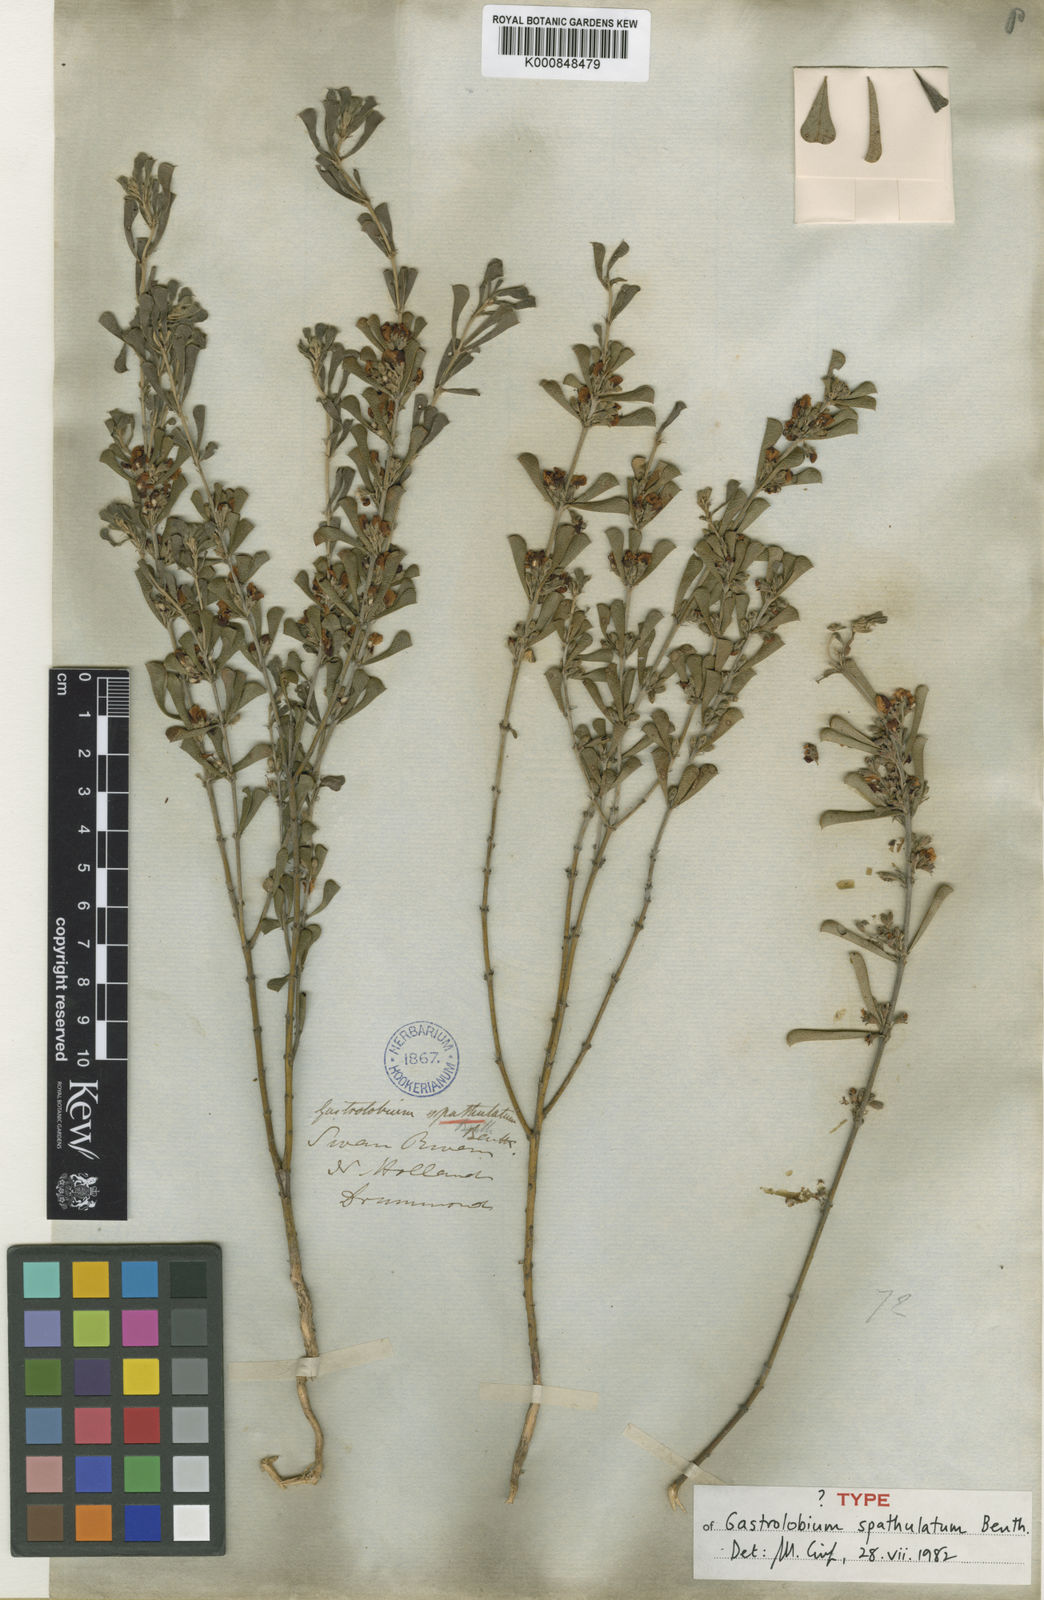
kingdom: Plantae
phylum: Tracheophyta
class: Magnoliopsida
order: Fabales
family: Fabaceae
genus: Gastrolobium
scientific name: Gastrolobium spathulatum
